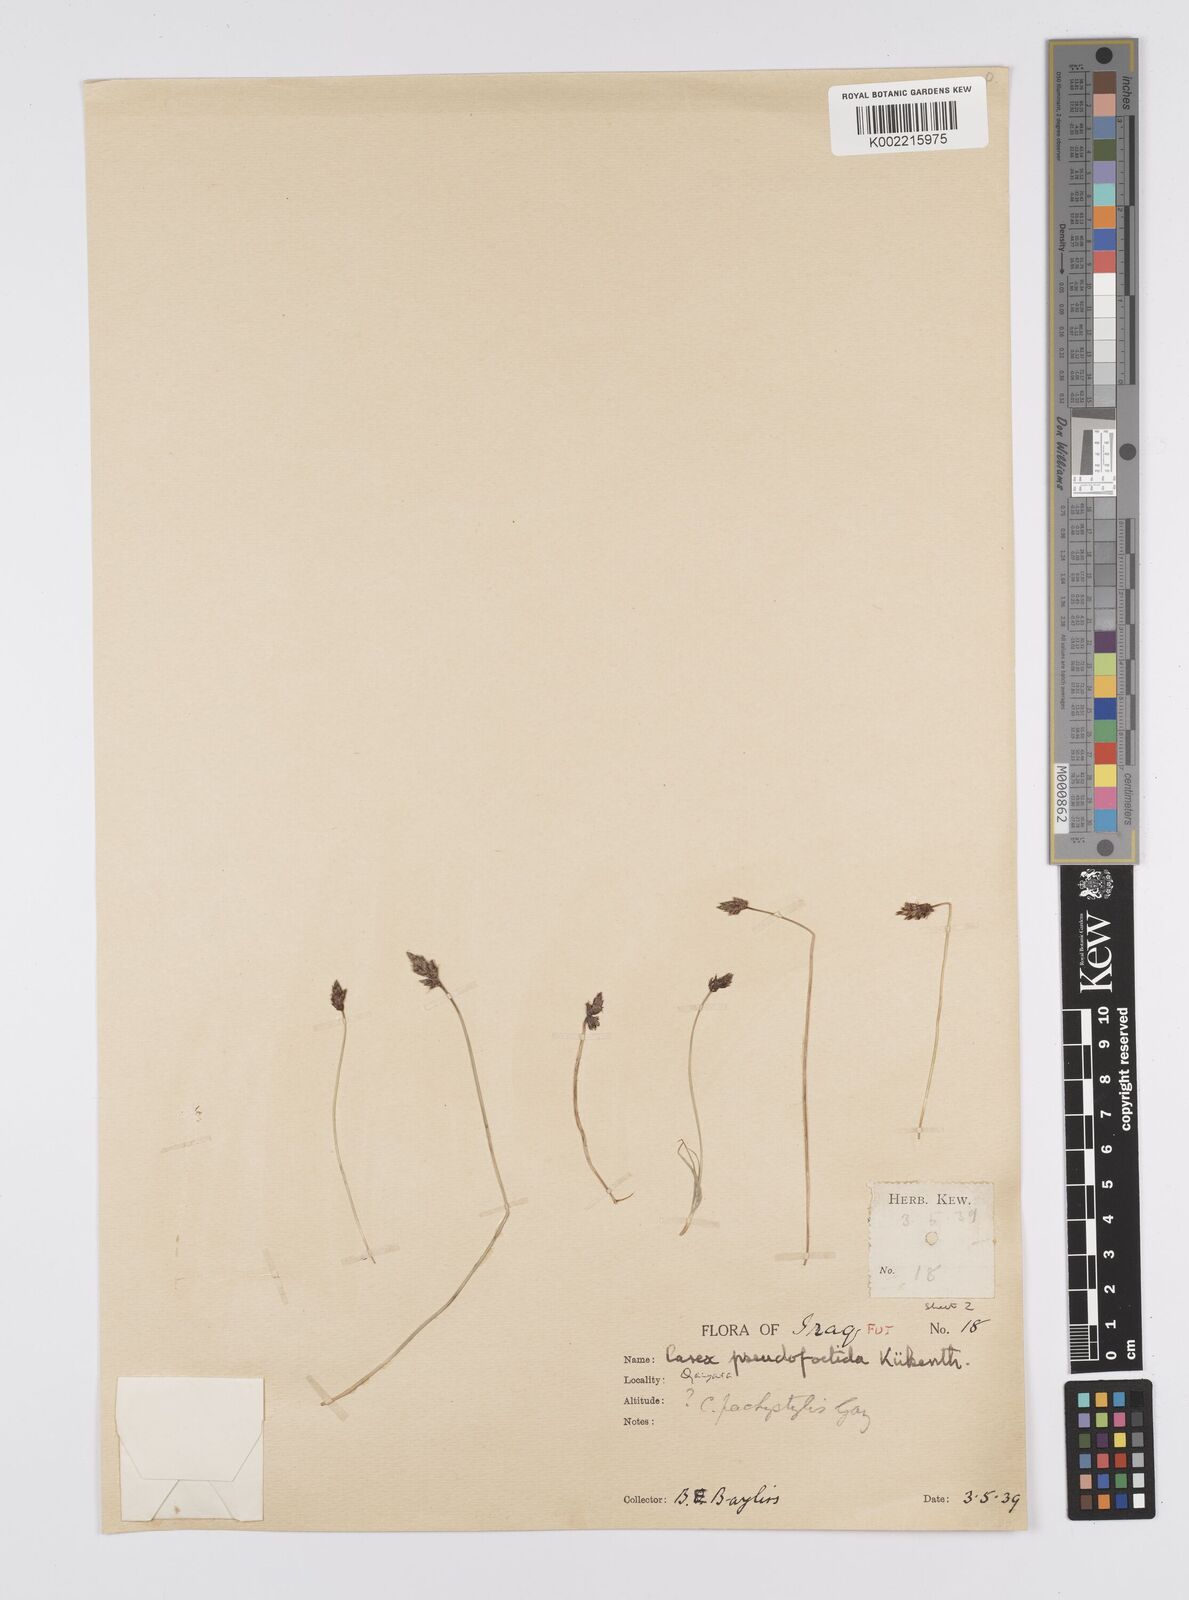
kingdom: Plantae
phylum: Tracheophyta
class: Liliopsida
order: Poales
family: Cyperaceae
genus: Carex
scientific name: Carex pachystylis
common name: Thick-stem sedge
